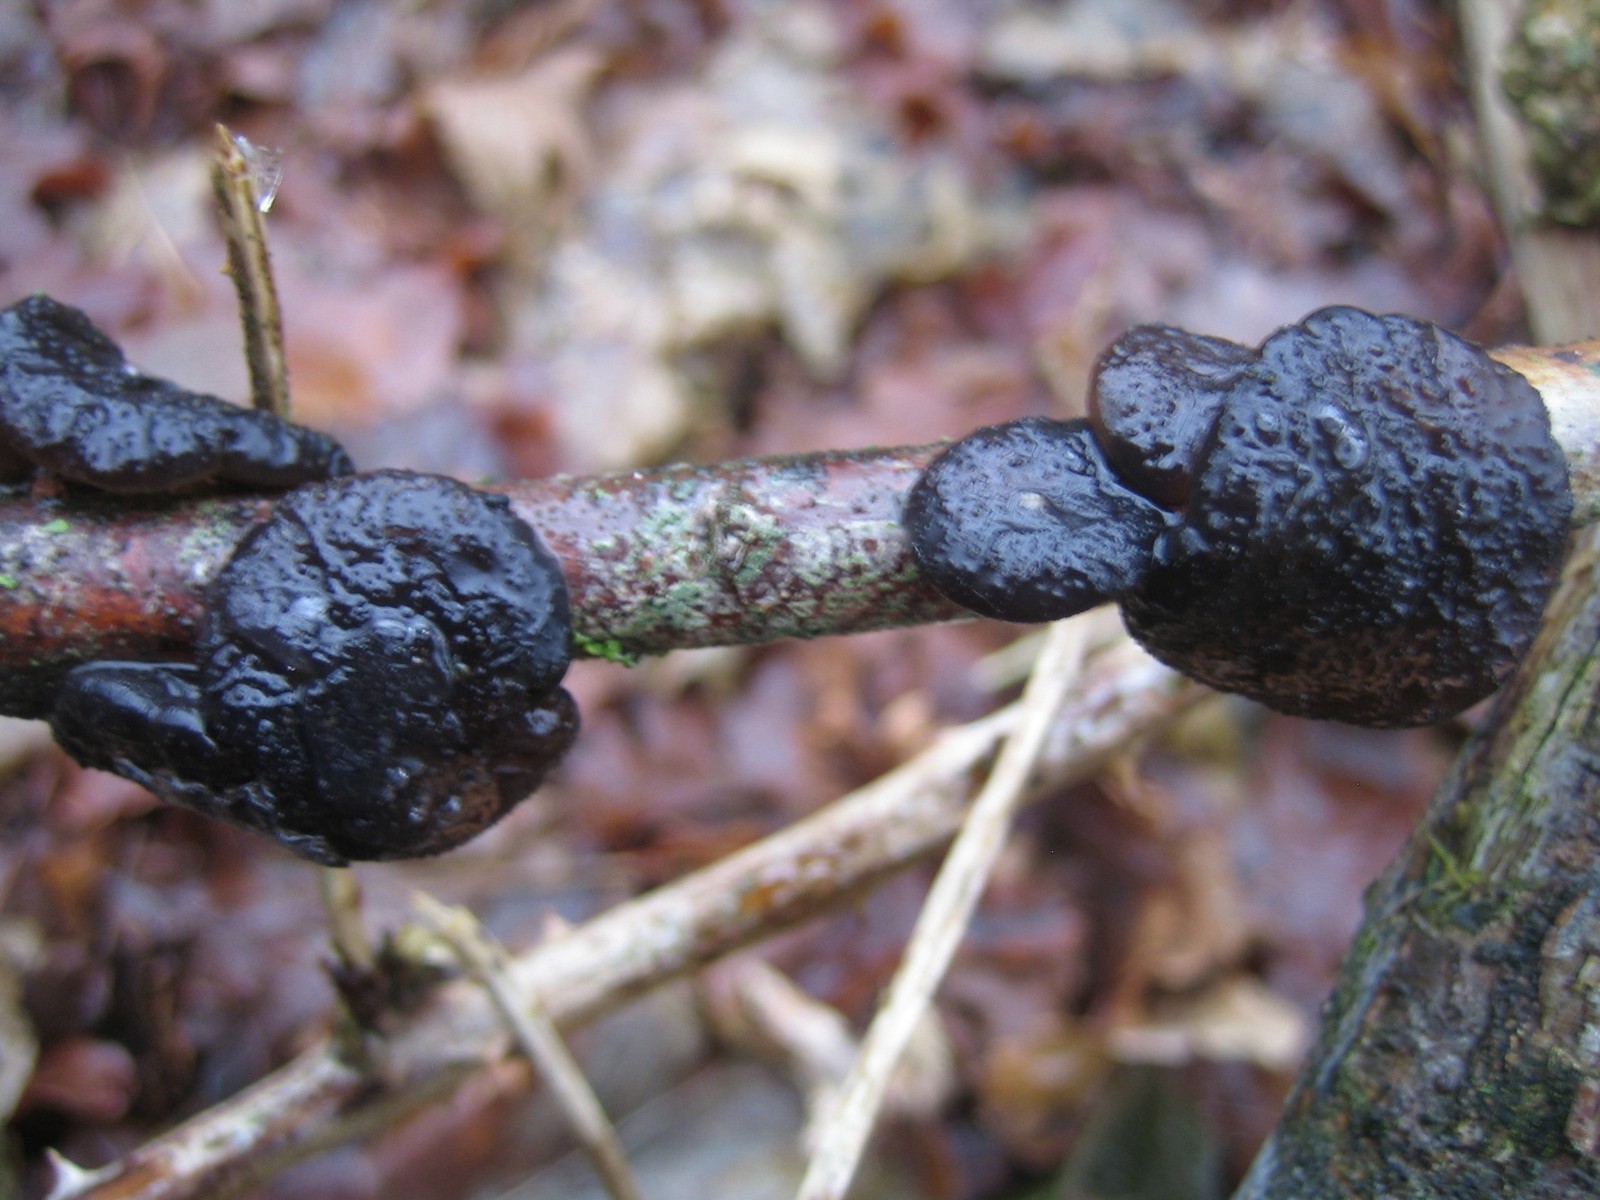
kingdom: Fungi
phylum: Basidiomycota
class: Agaricomycetes
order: Auriculariales
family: Auriculariaceae
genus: Exidia
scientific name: Exidia glandulosa
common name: ege-bævretop
